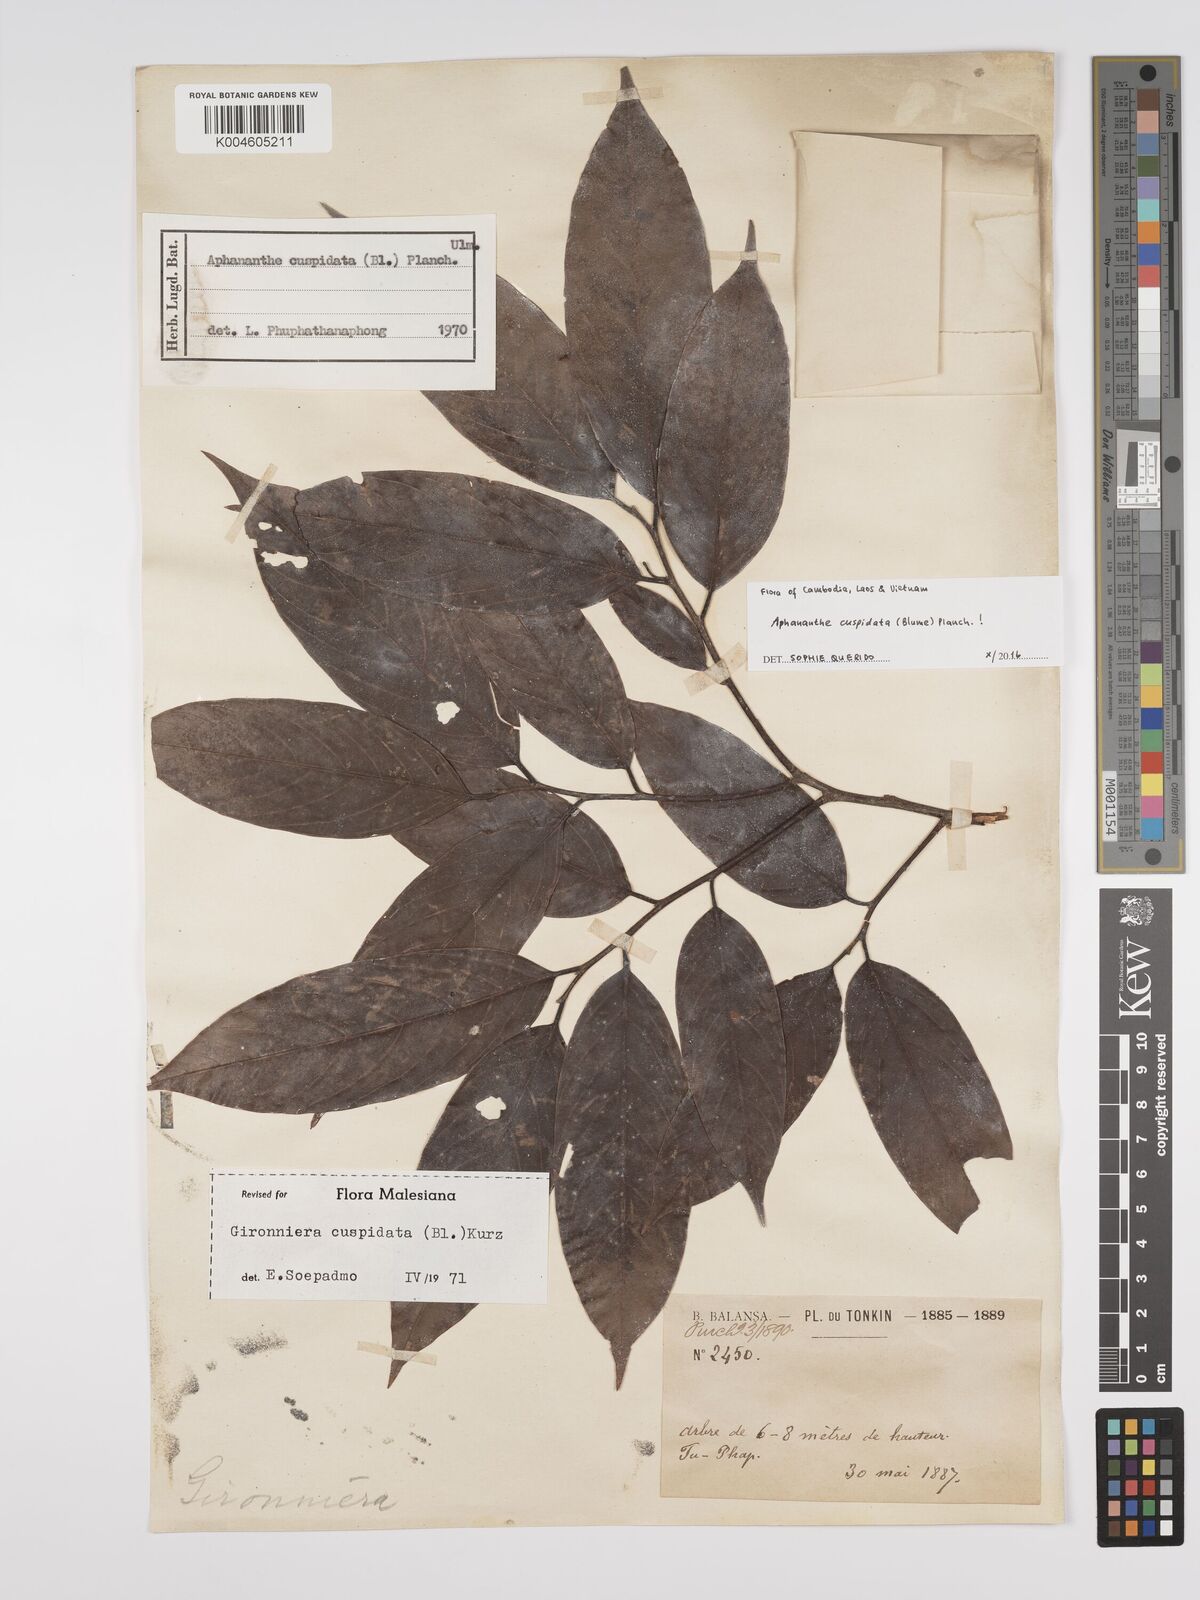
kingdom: Plantae
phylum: Tracheophyta
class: Magnoliopsida
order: Rosales
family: Cannabaceae
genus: Aphananthe
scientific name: Aphananthe cuspidata
